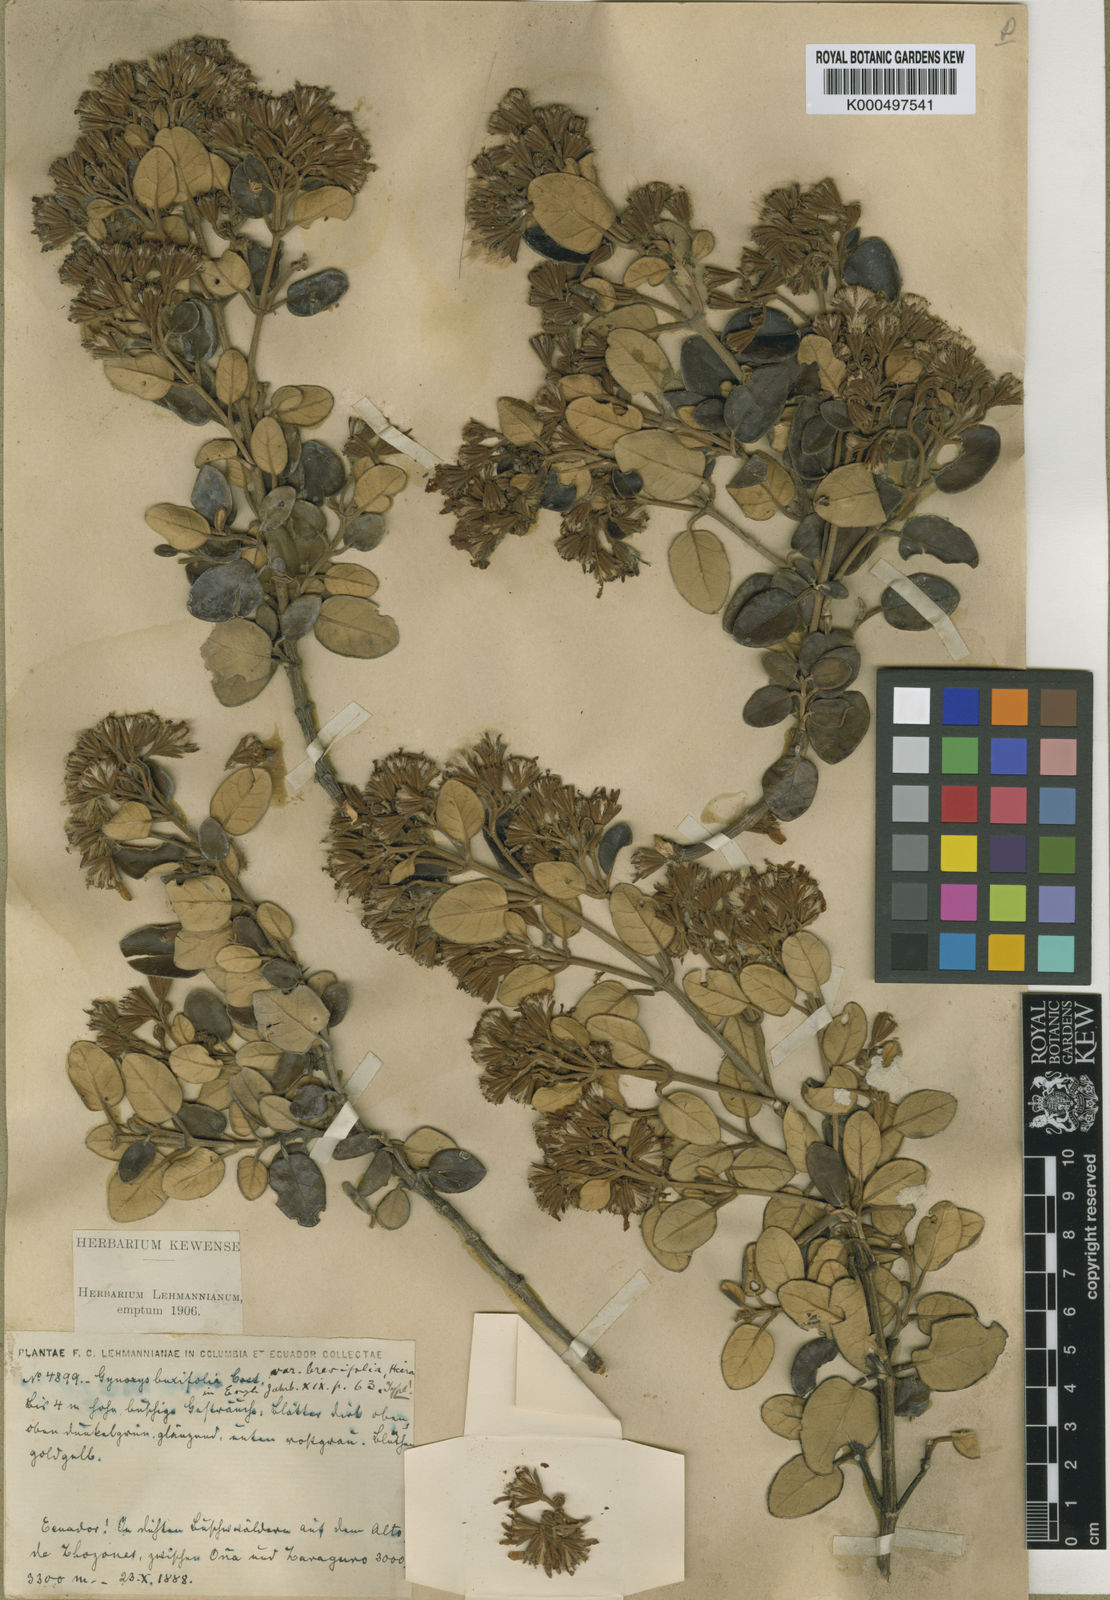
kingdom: Plantae
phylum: Tracheophyta
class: Magnoliopsida
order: Asterales
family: Asteraceae
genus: Gynoxys
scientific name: Gynoxys buxifolia
